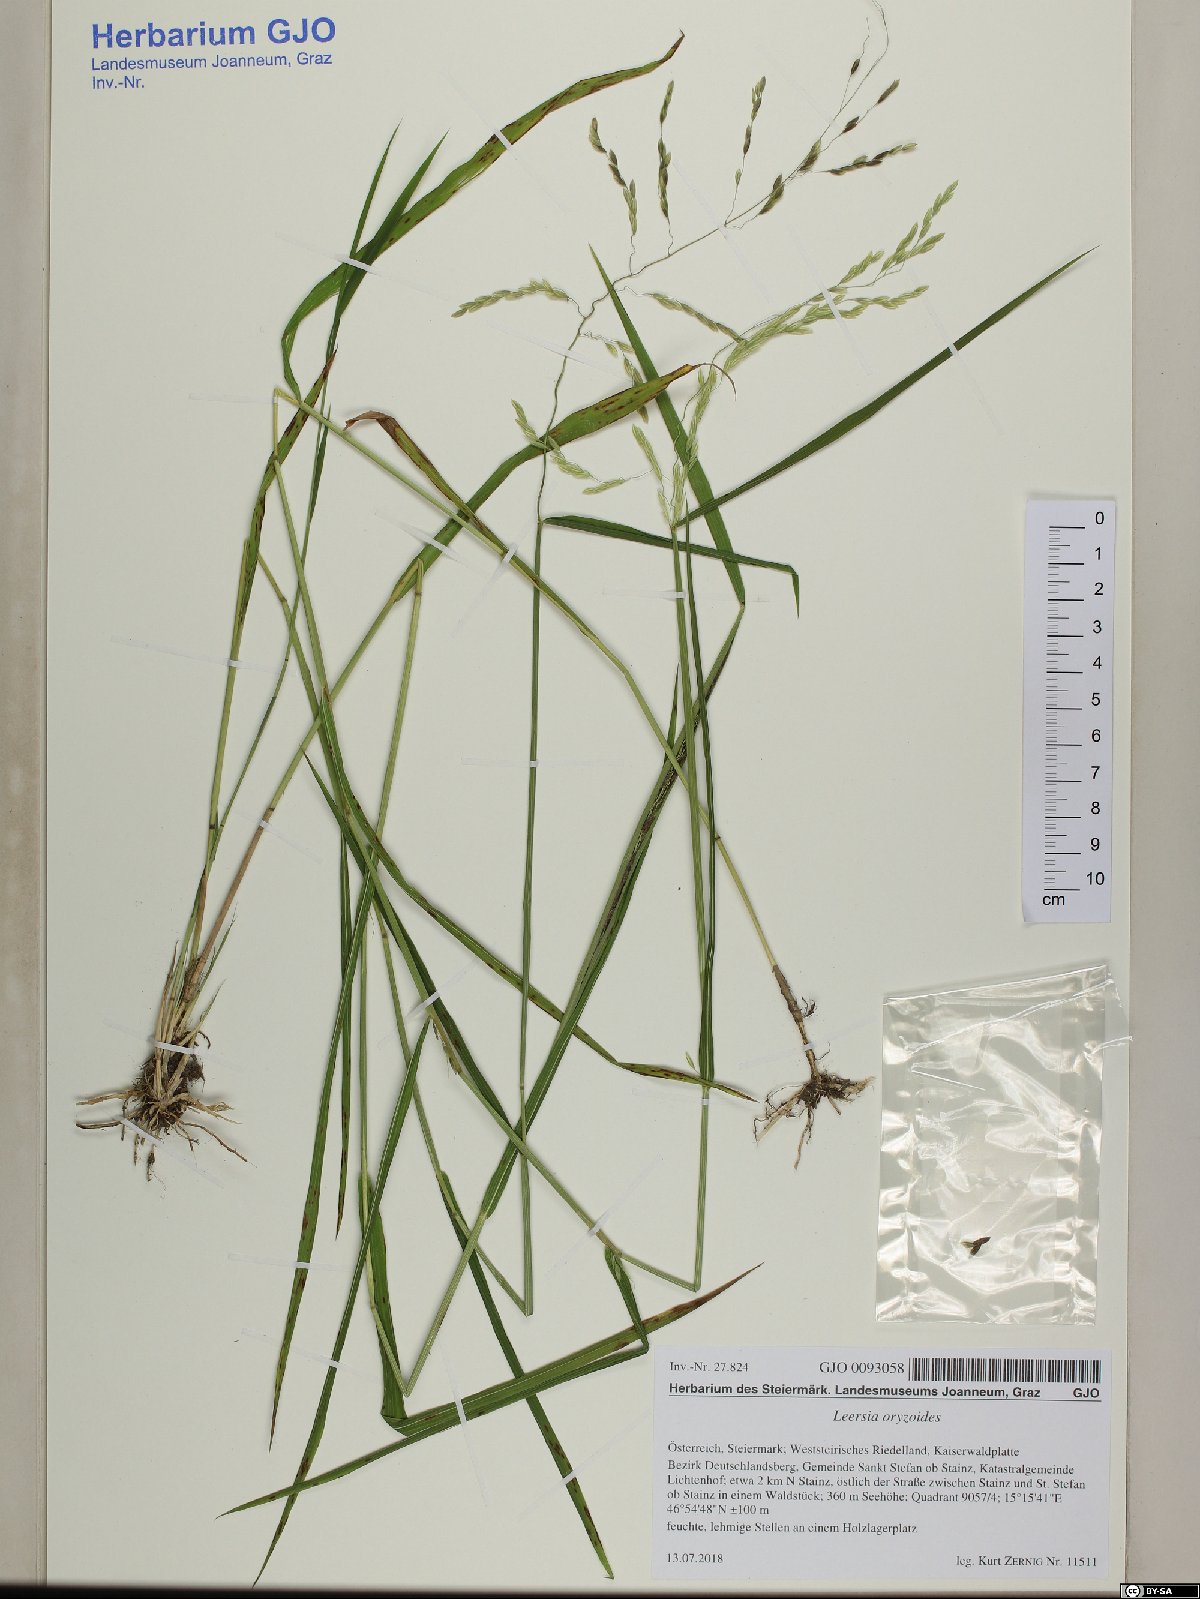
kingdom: Plantae
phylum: Tracheophyta
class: Liliopsida
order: Poales
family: Poaceae
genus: Leersia
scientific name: Leersia oryzoides
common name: Cut-grass
